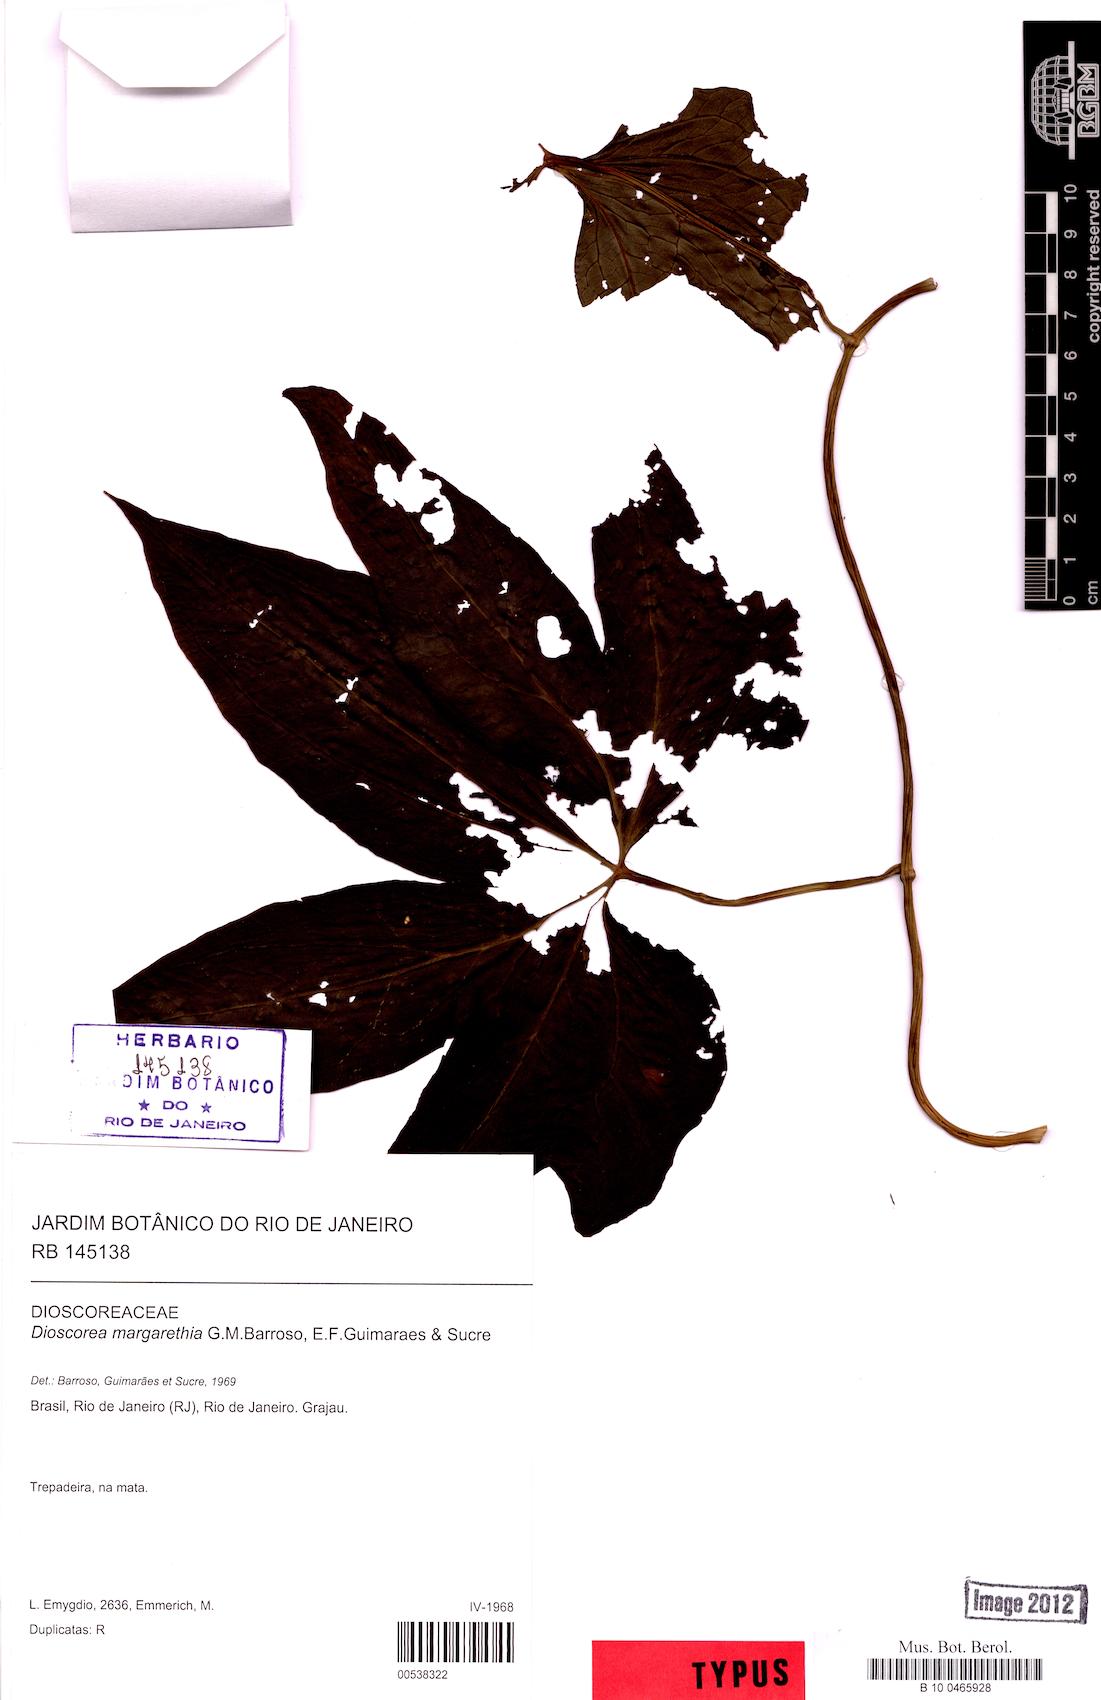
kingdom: Plantae
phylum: Tracheophyta
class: Liliopsida
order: Dioscoreales
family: Dioscoreaceae
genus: Dioscorea
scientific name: Dioscorea margarethia
